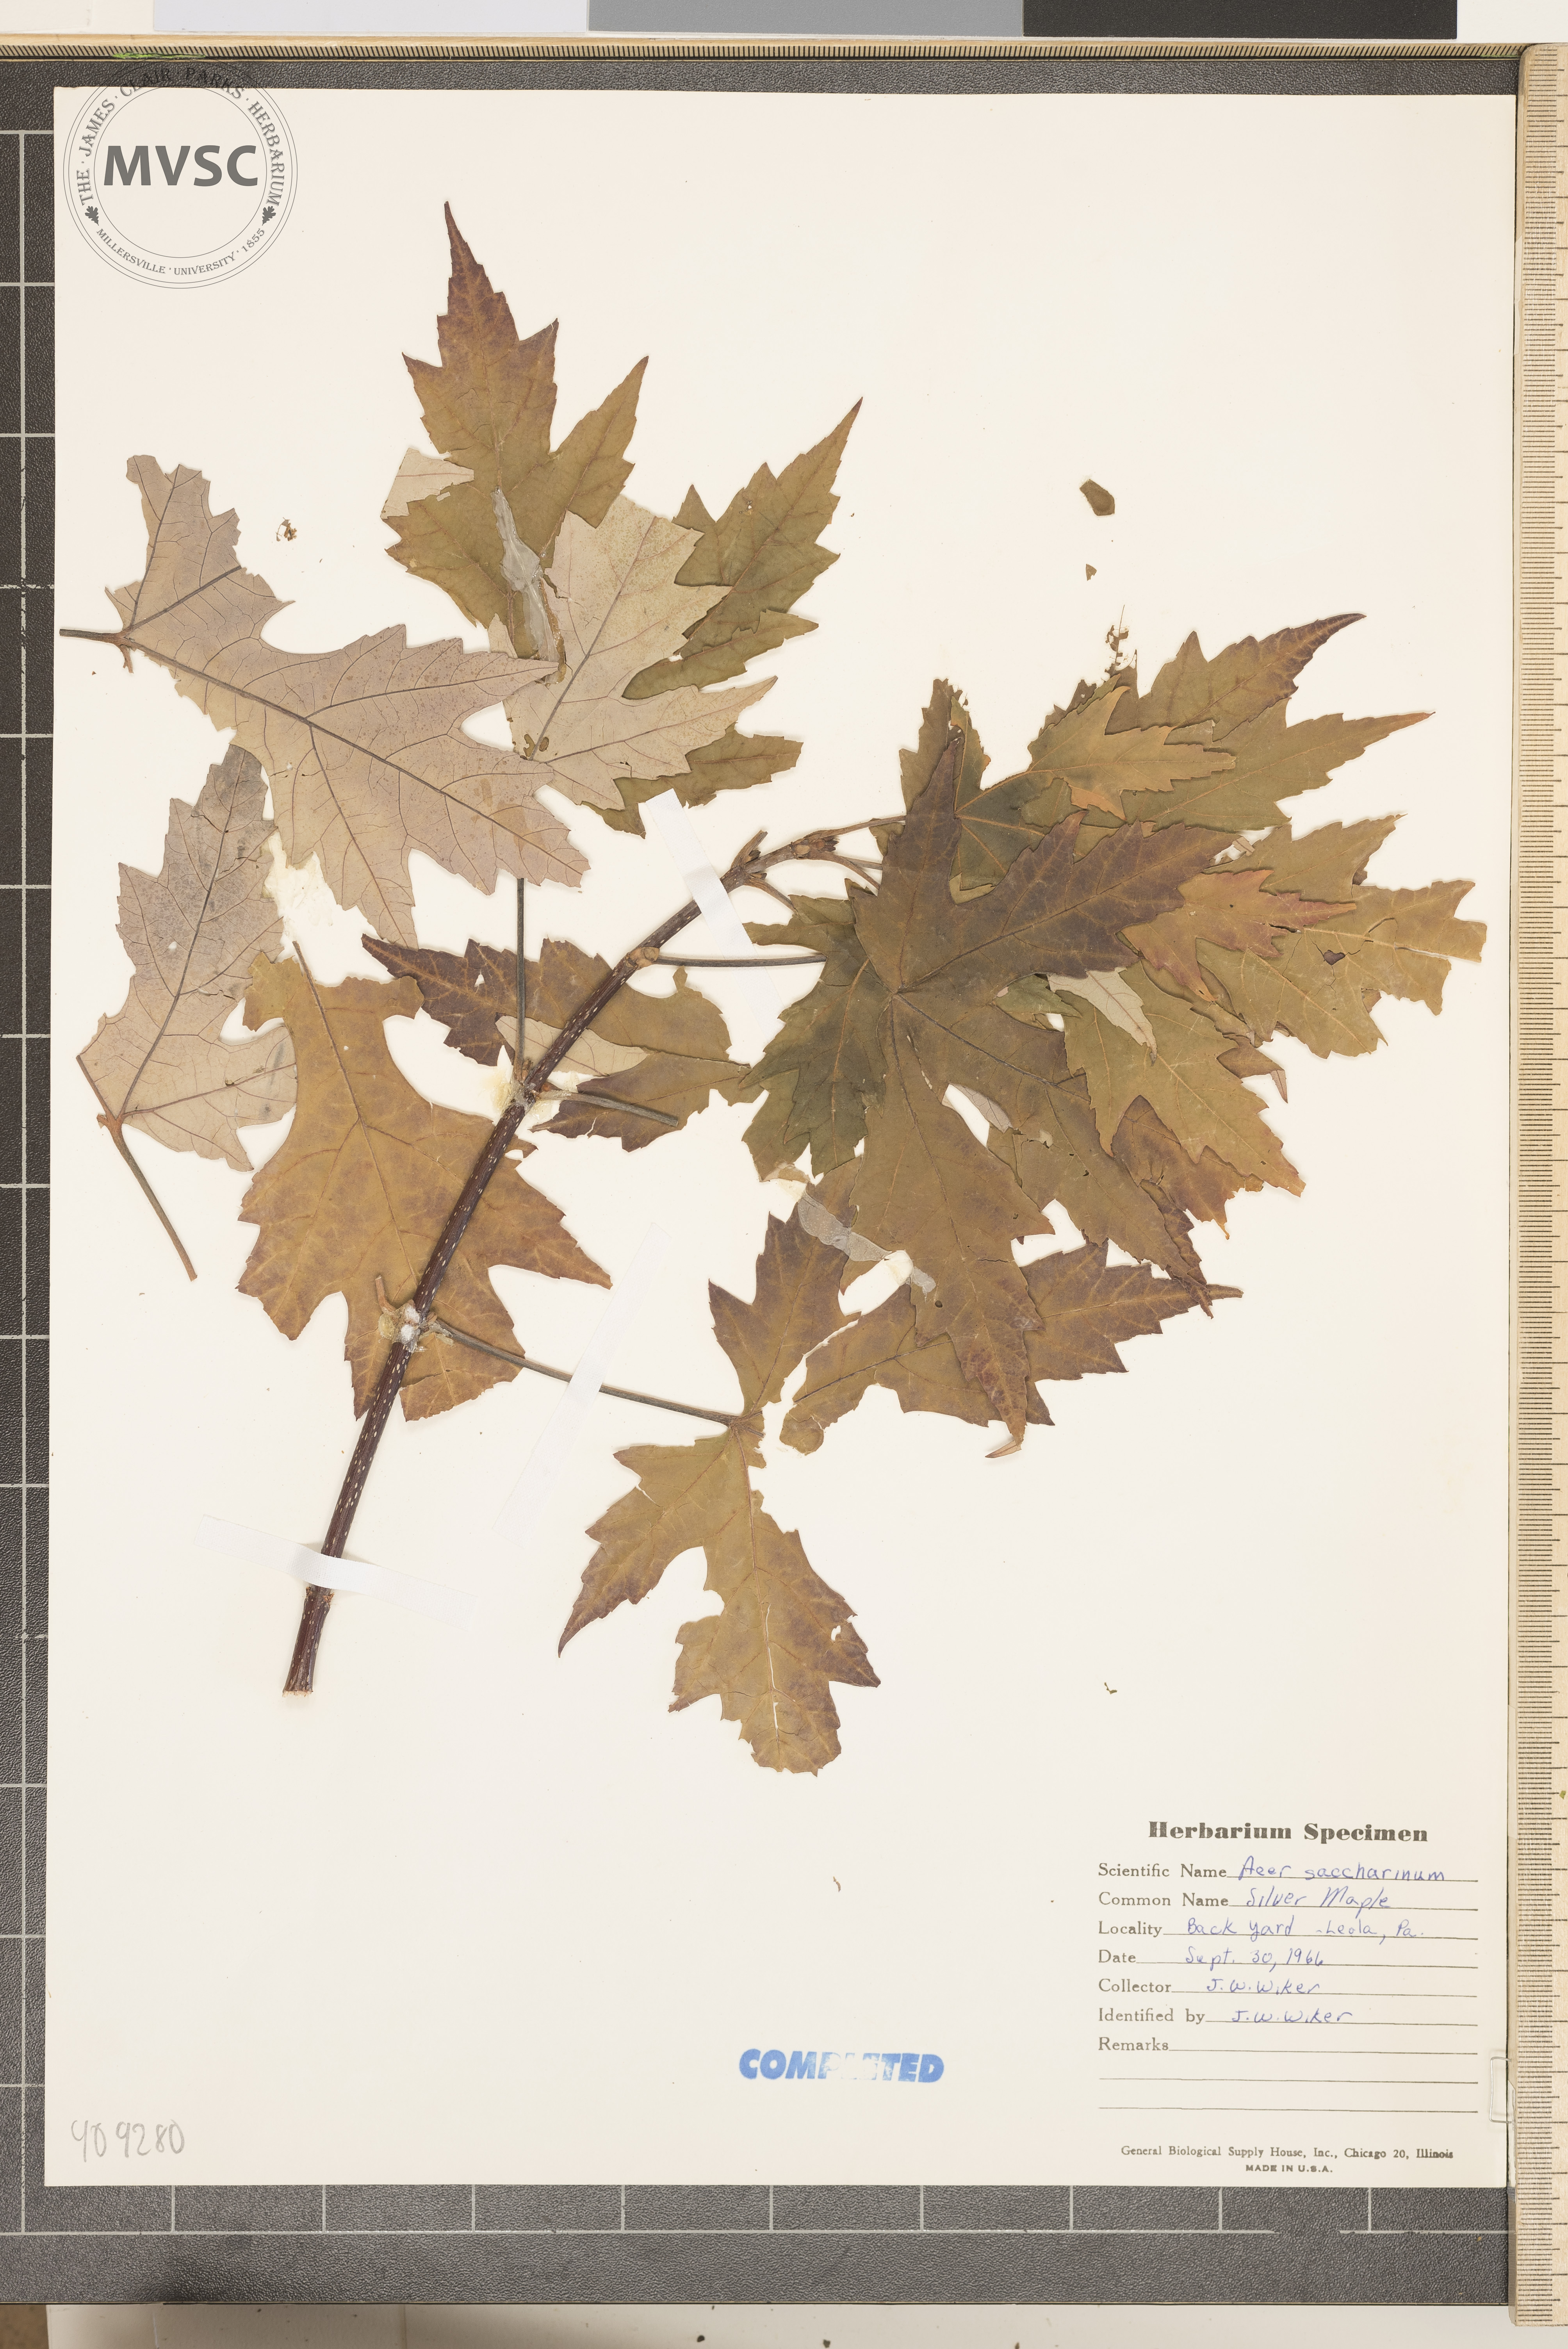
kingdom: Plantae
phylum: Tracheophyta
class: Magnoliopsida
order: Sapindales
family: Sapindaceae
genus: Acer
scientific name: Acer saccharinum
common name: Silver maple
